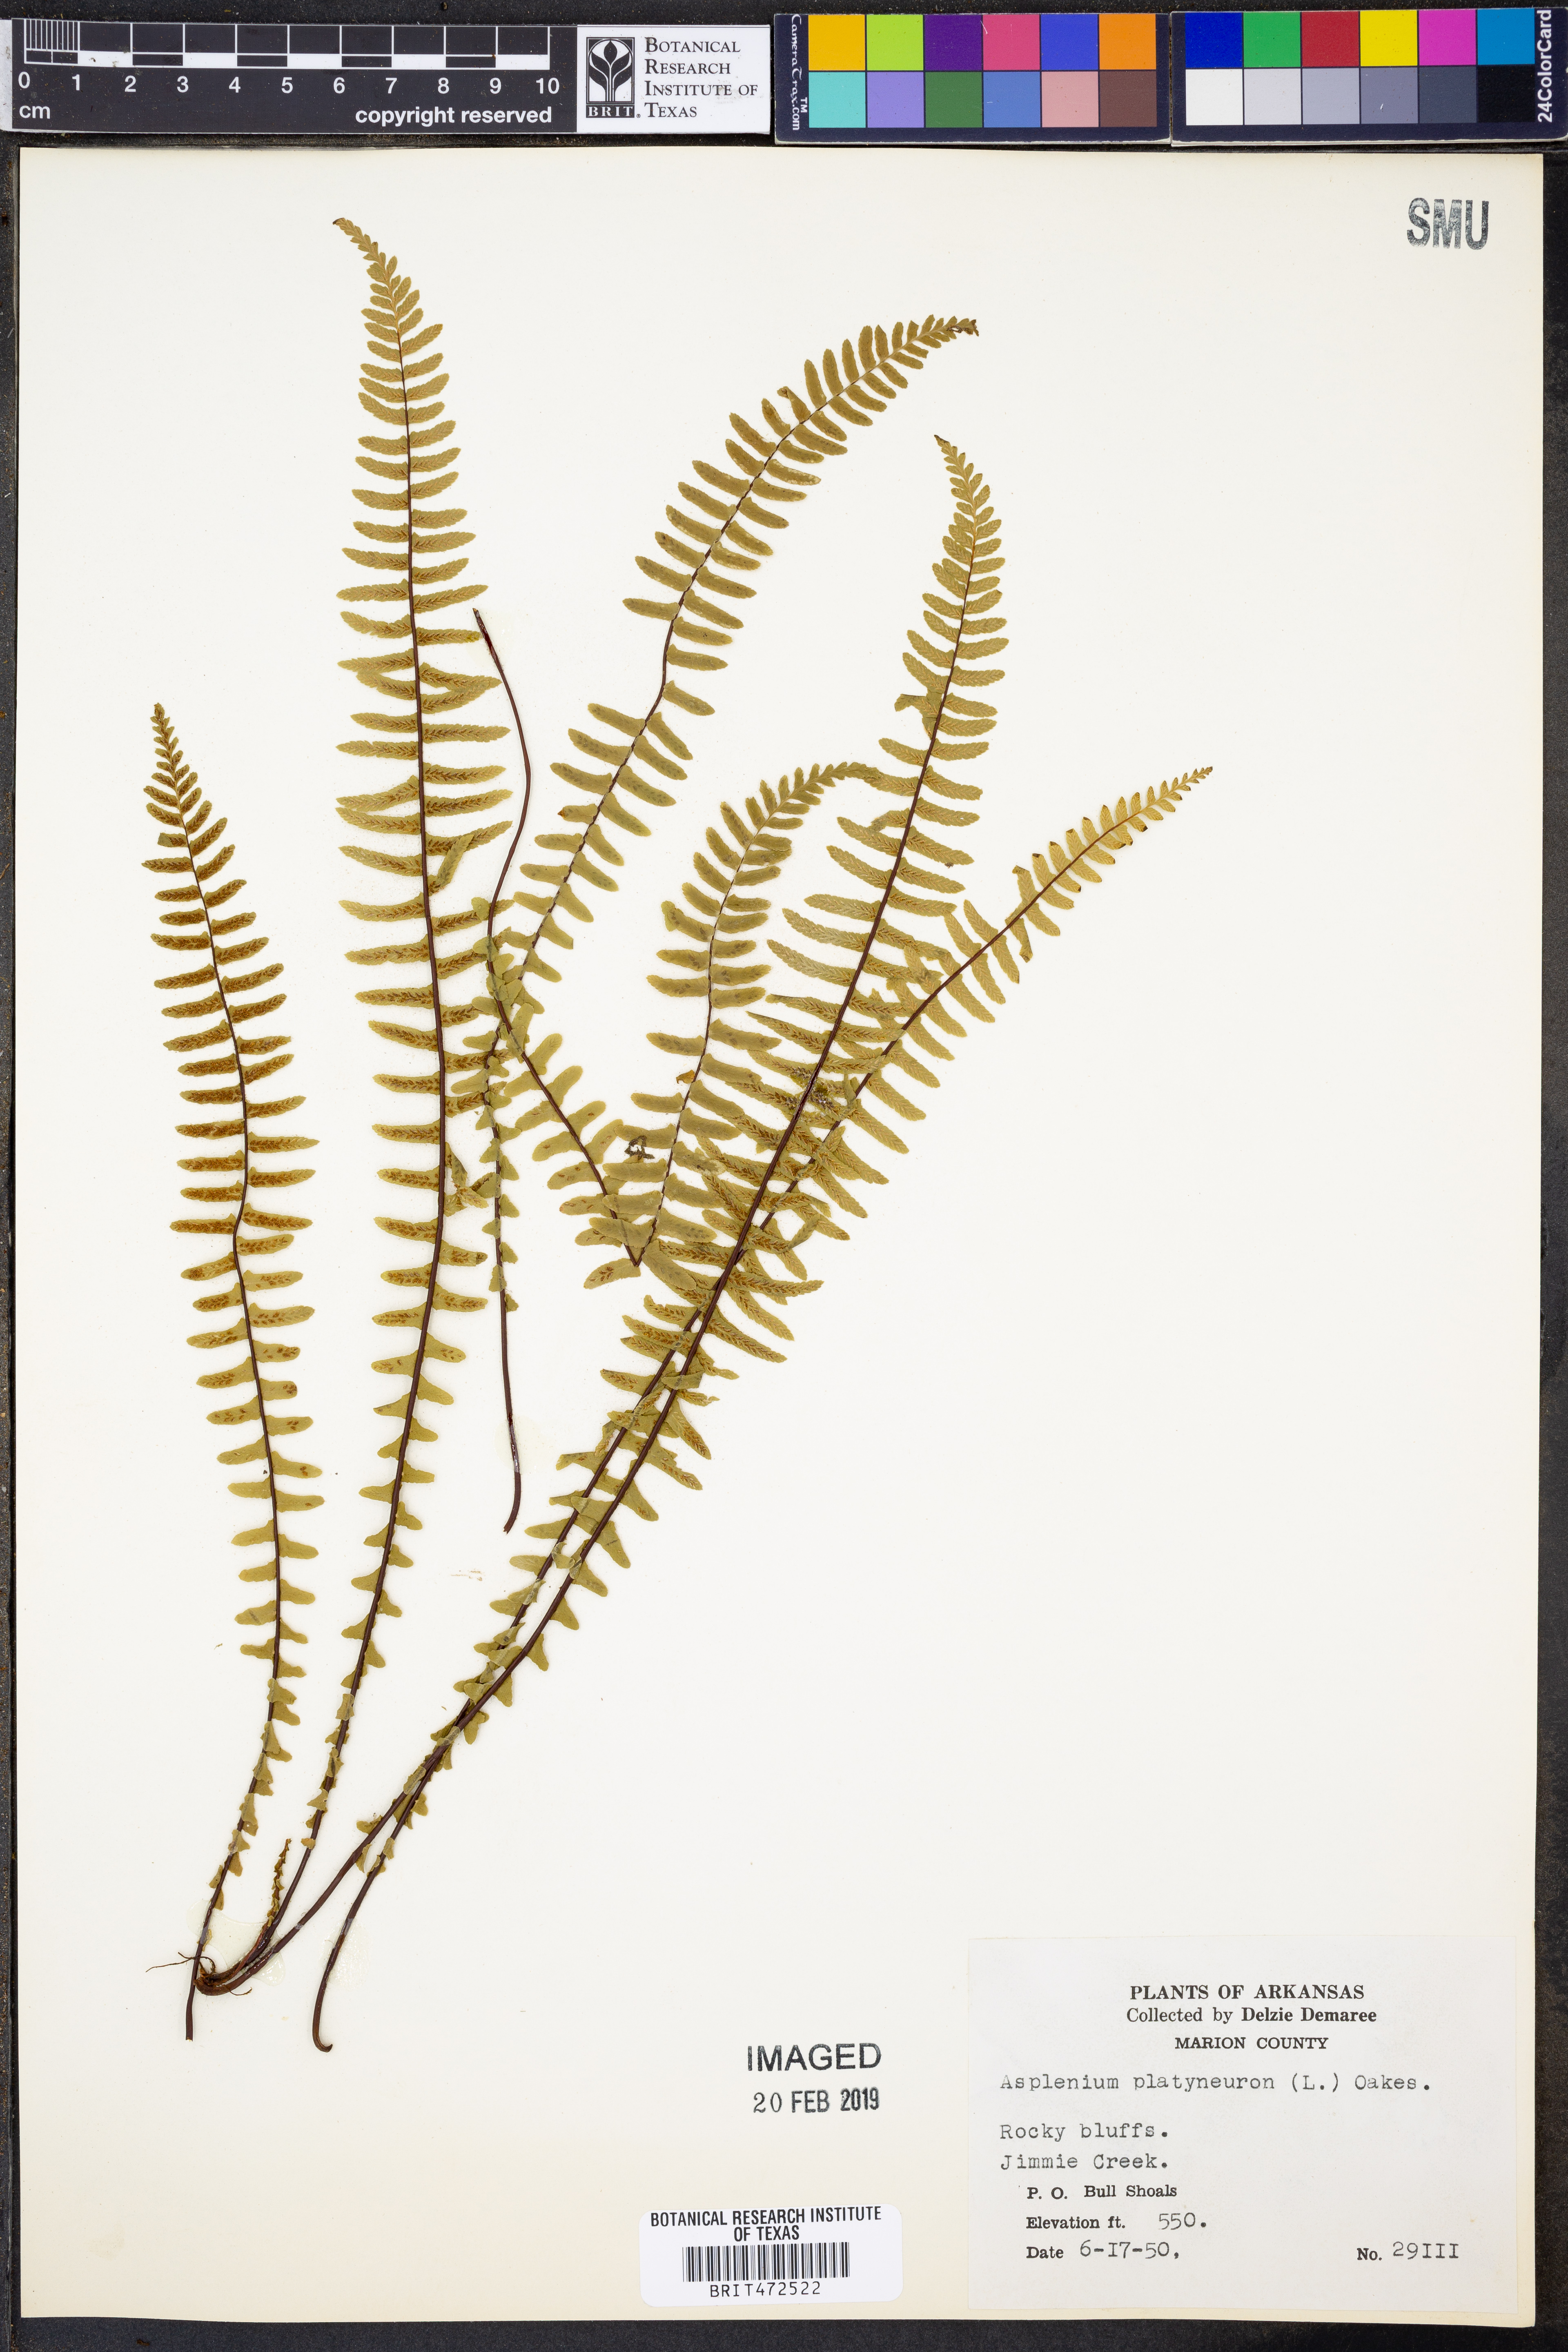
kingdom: Plantae
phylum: Tracheophyta
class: Polypodiopsida
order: Polypodiales
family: Aspleniaceae
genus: Asplenium
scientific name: Asplenium platyneuron
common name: Ebony spleenwort
